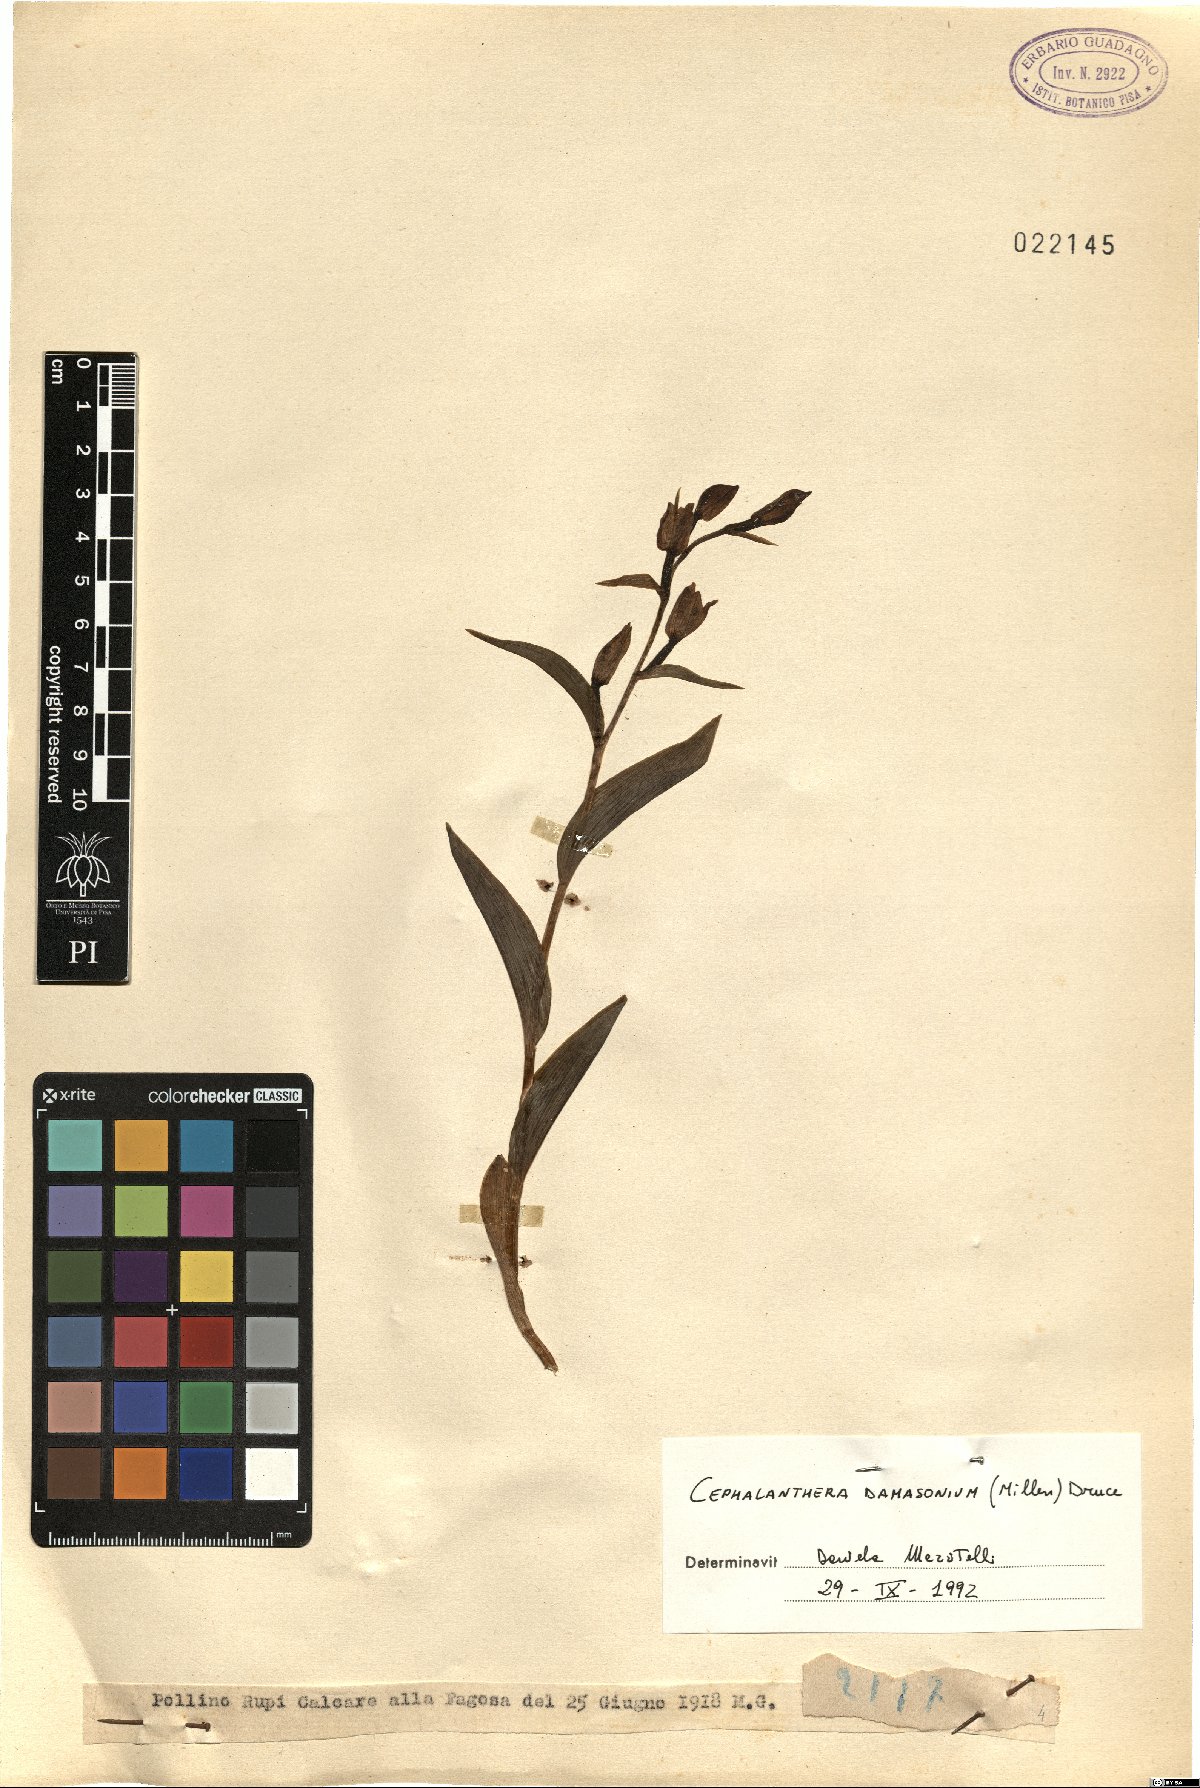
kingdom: Plantae
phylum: Tracheophyta
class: Liliopsida
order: Asparagales
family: Orchidaceae
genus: Cephalanthera
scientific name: Cephalanthera damasonium
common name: White helleborine
